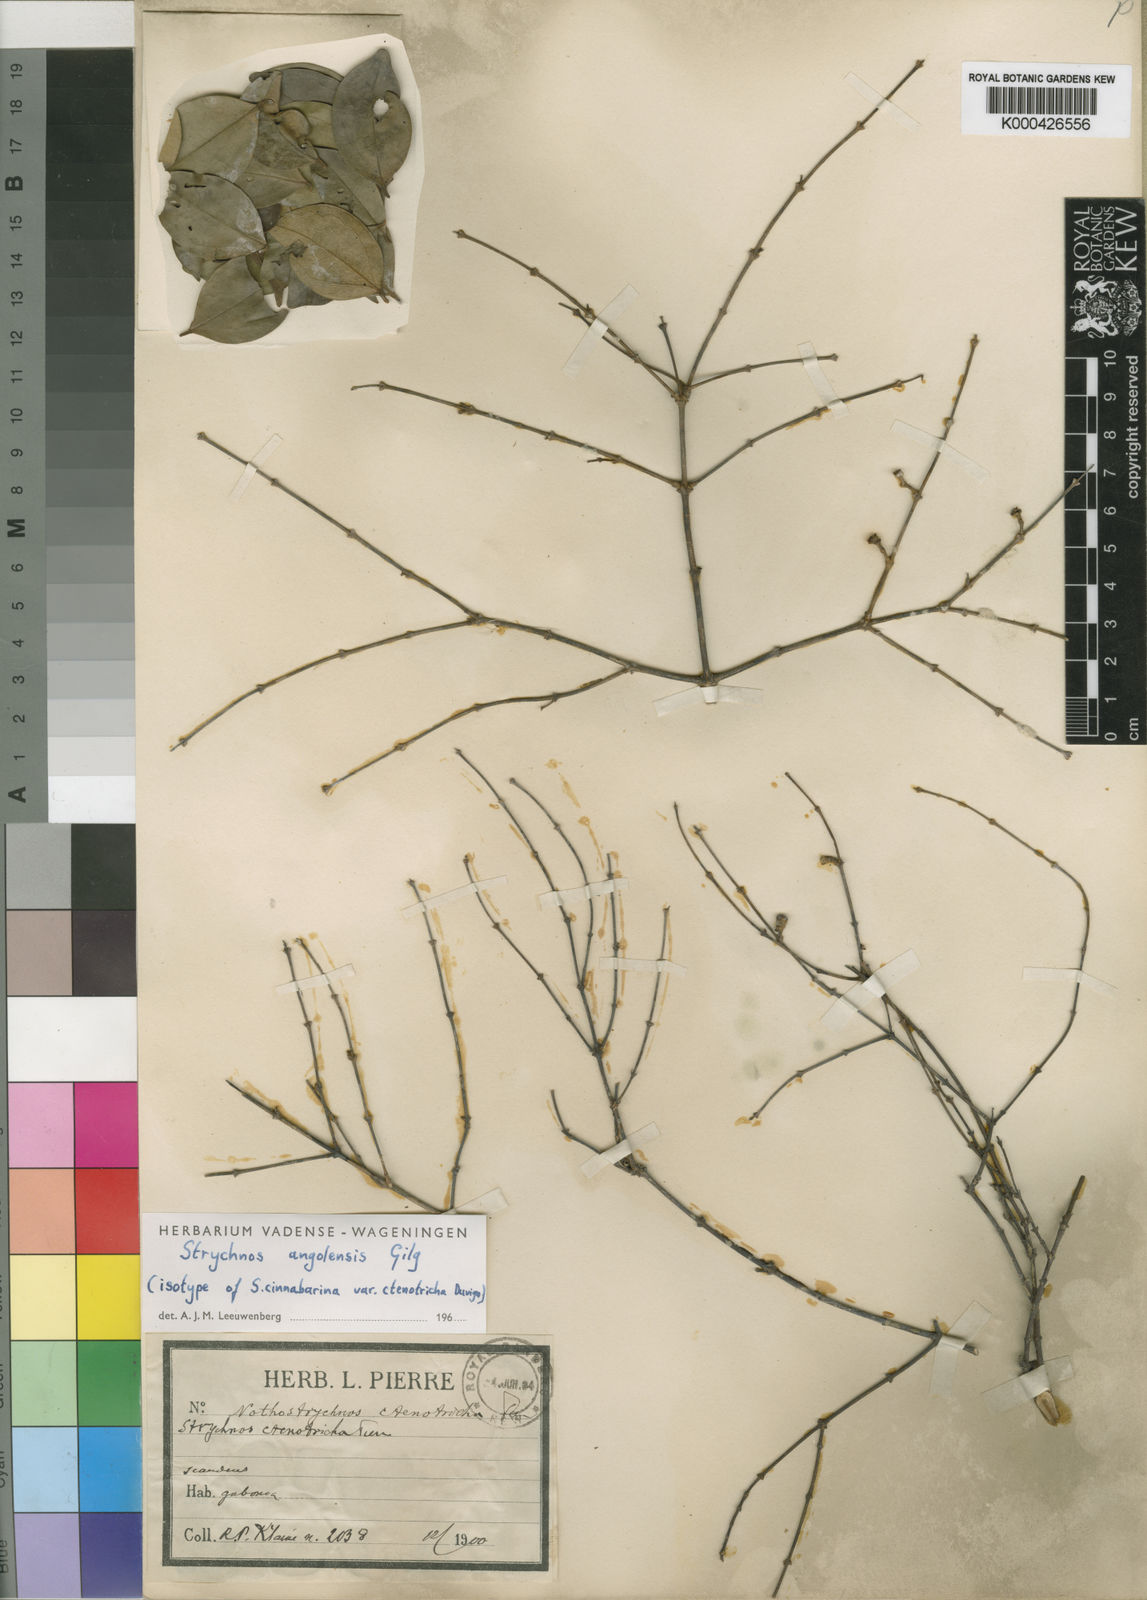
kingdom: Plantae
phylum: Tracheophyta
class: Magnoliopsida
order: Gentianales
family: Loganiaceae
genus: Strychnos
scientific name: Strychnos angolensis
